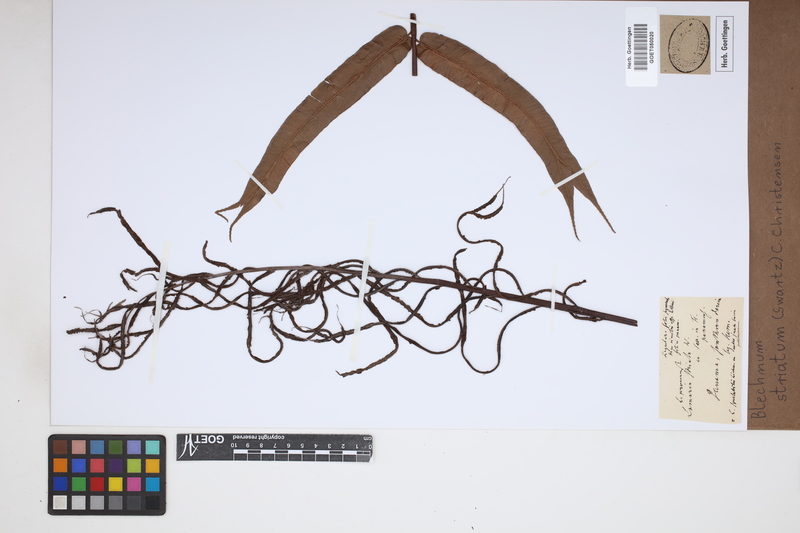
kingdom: Plantae
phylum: Tracheophyta
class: Polypodiopsida
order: Polypodiales
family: Blechnaceae
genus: Telmatoblechnum
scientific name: Telmatoblechnum indicum
